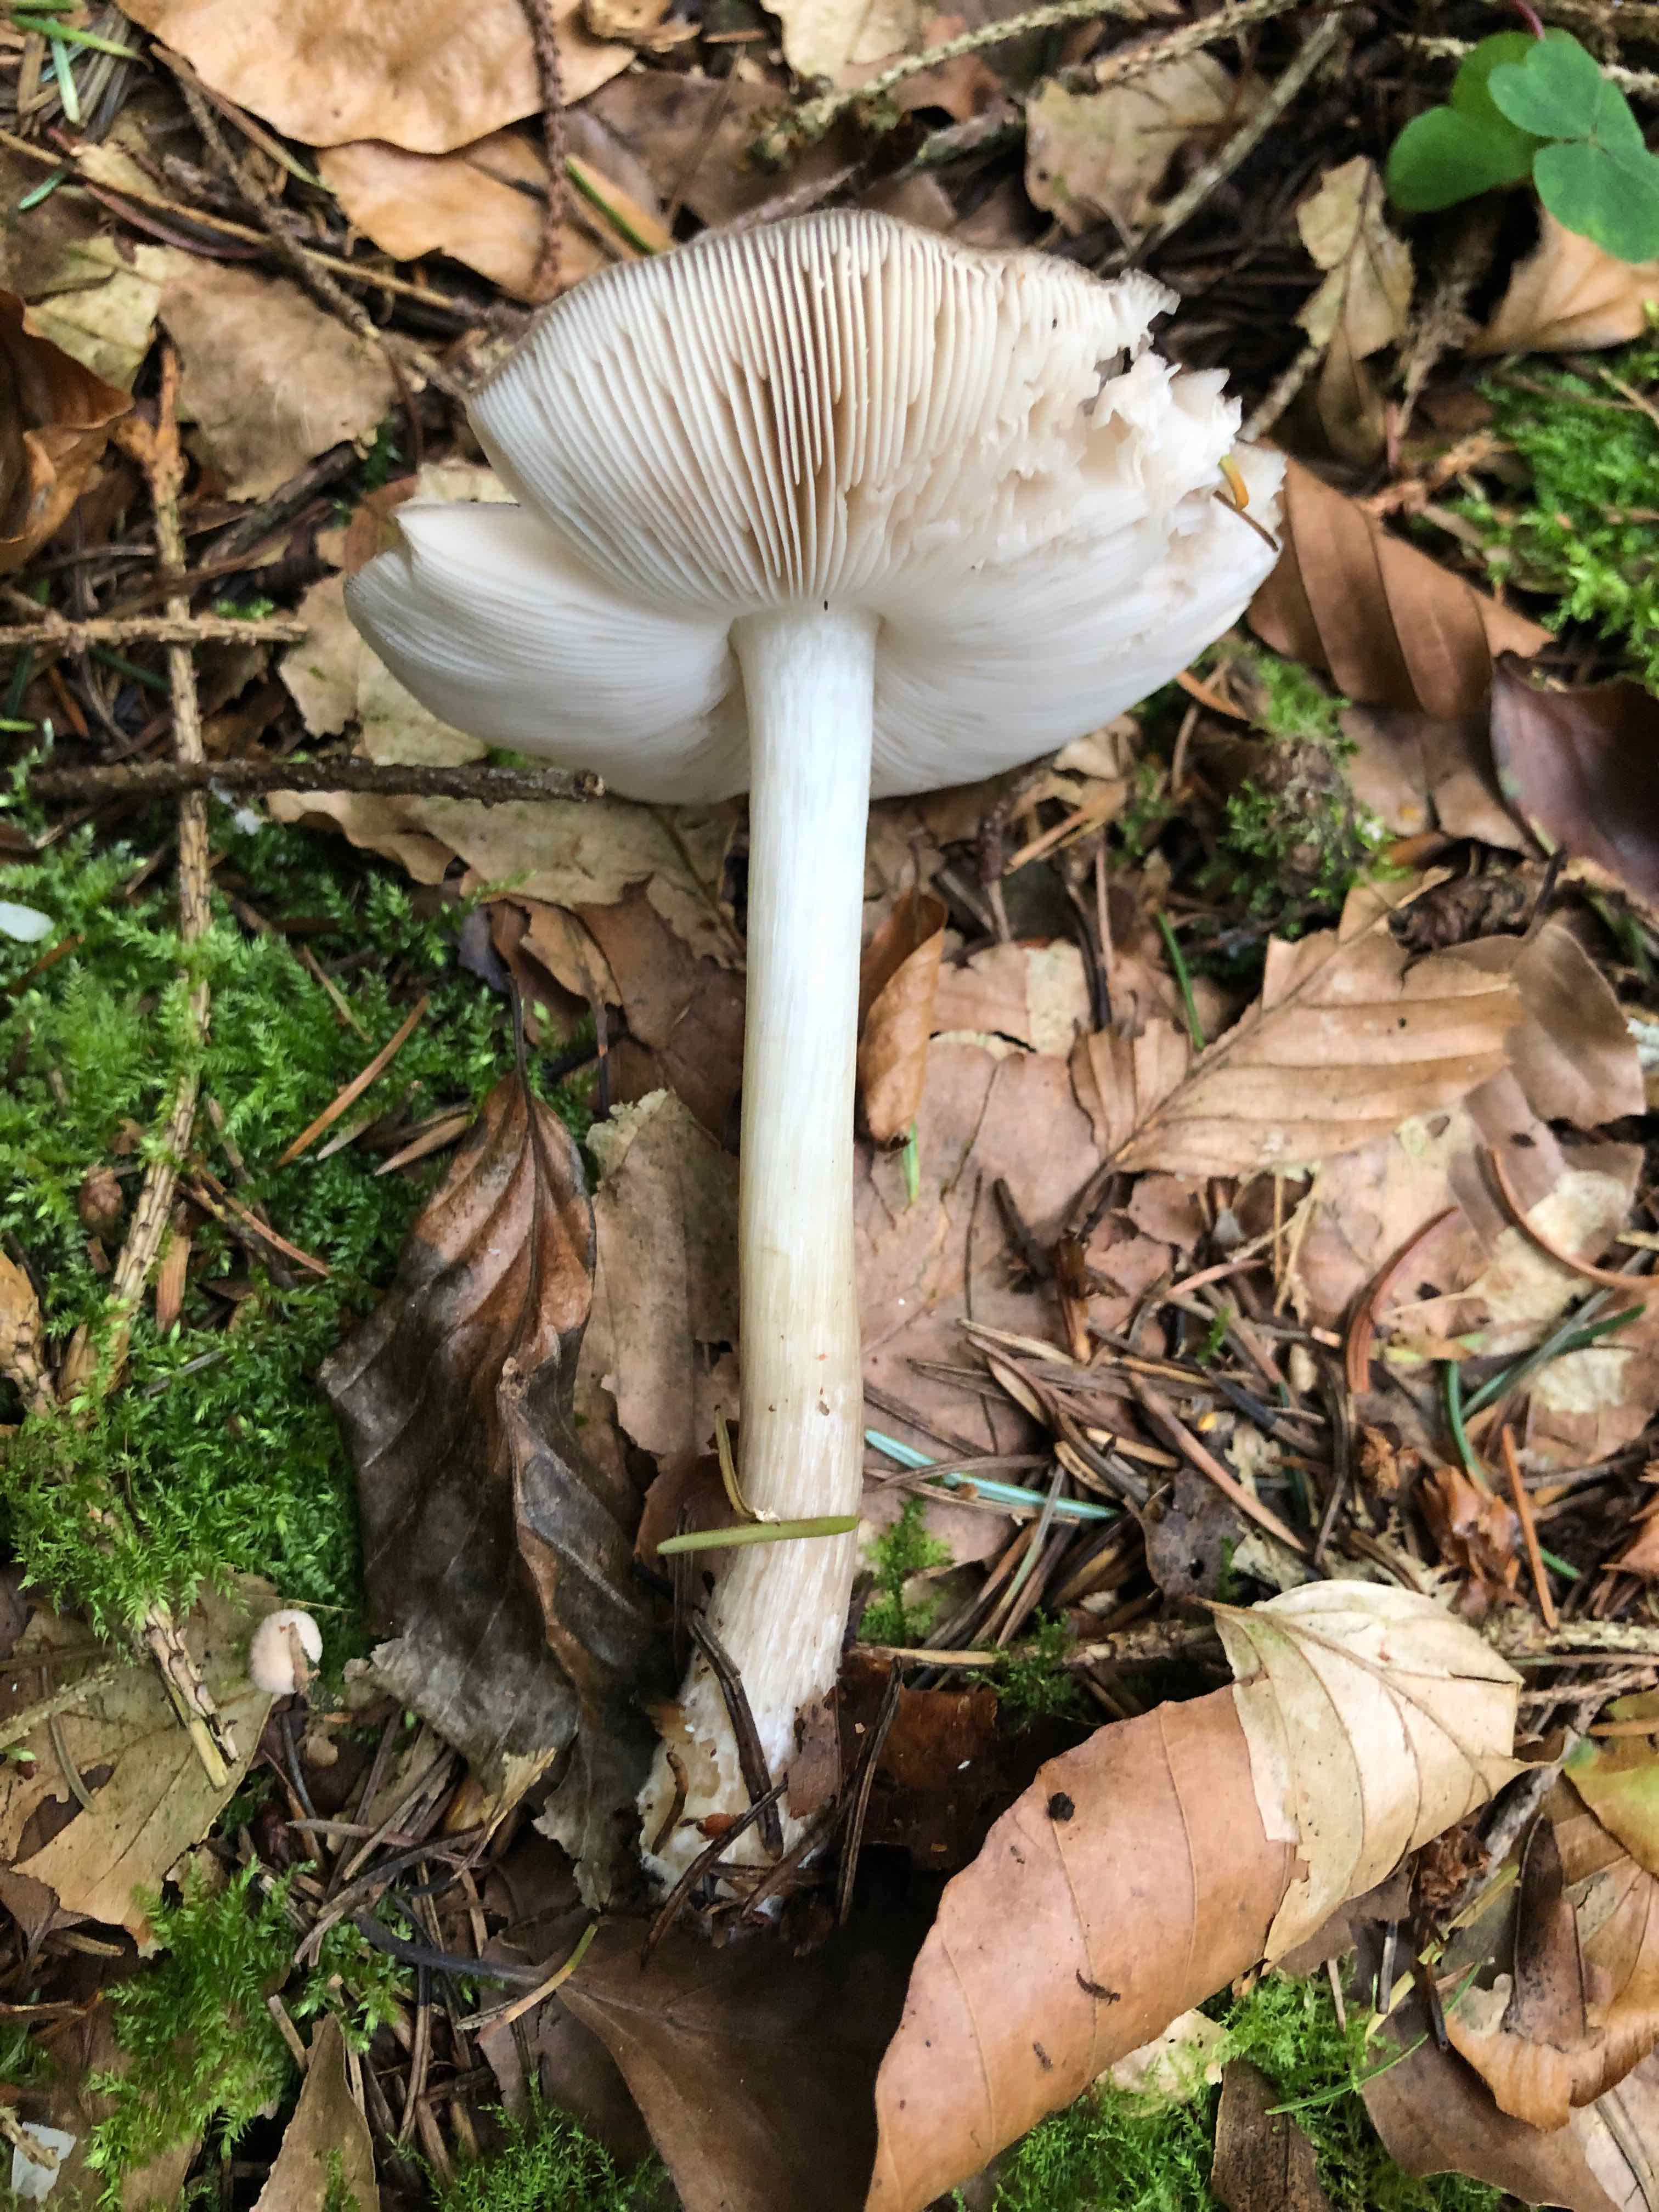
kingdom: Fungi
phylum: Basidiomycota
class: Agaricomycetes
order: Agaricales
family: Pluteaceae
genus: Pluteus
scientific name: Pluteus cervinus
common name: sodfarvet skærmhat
